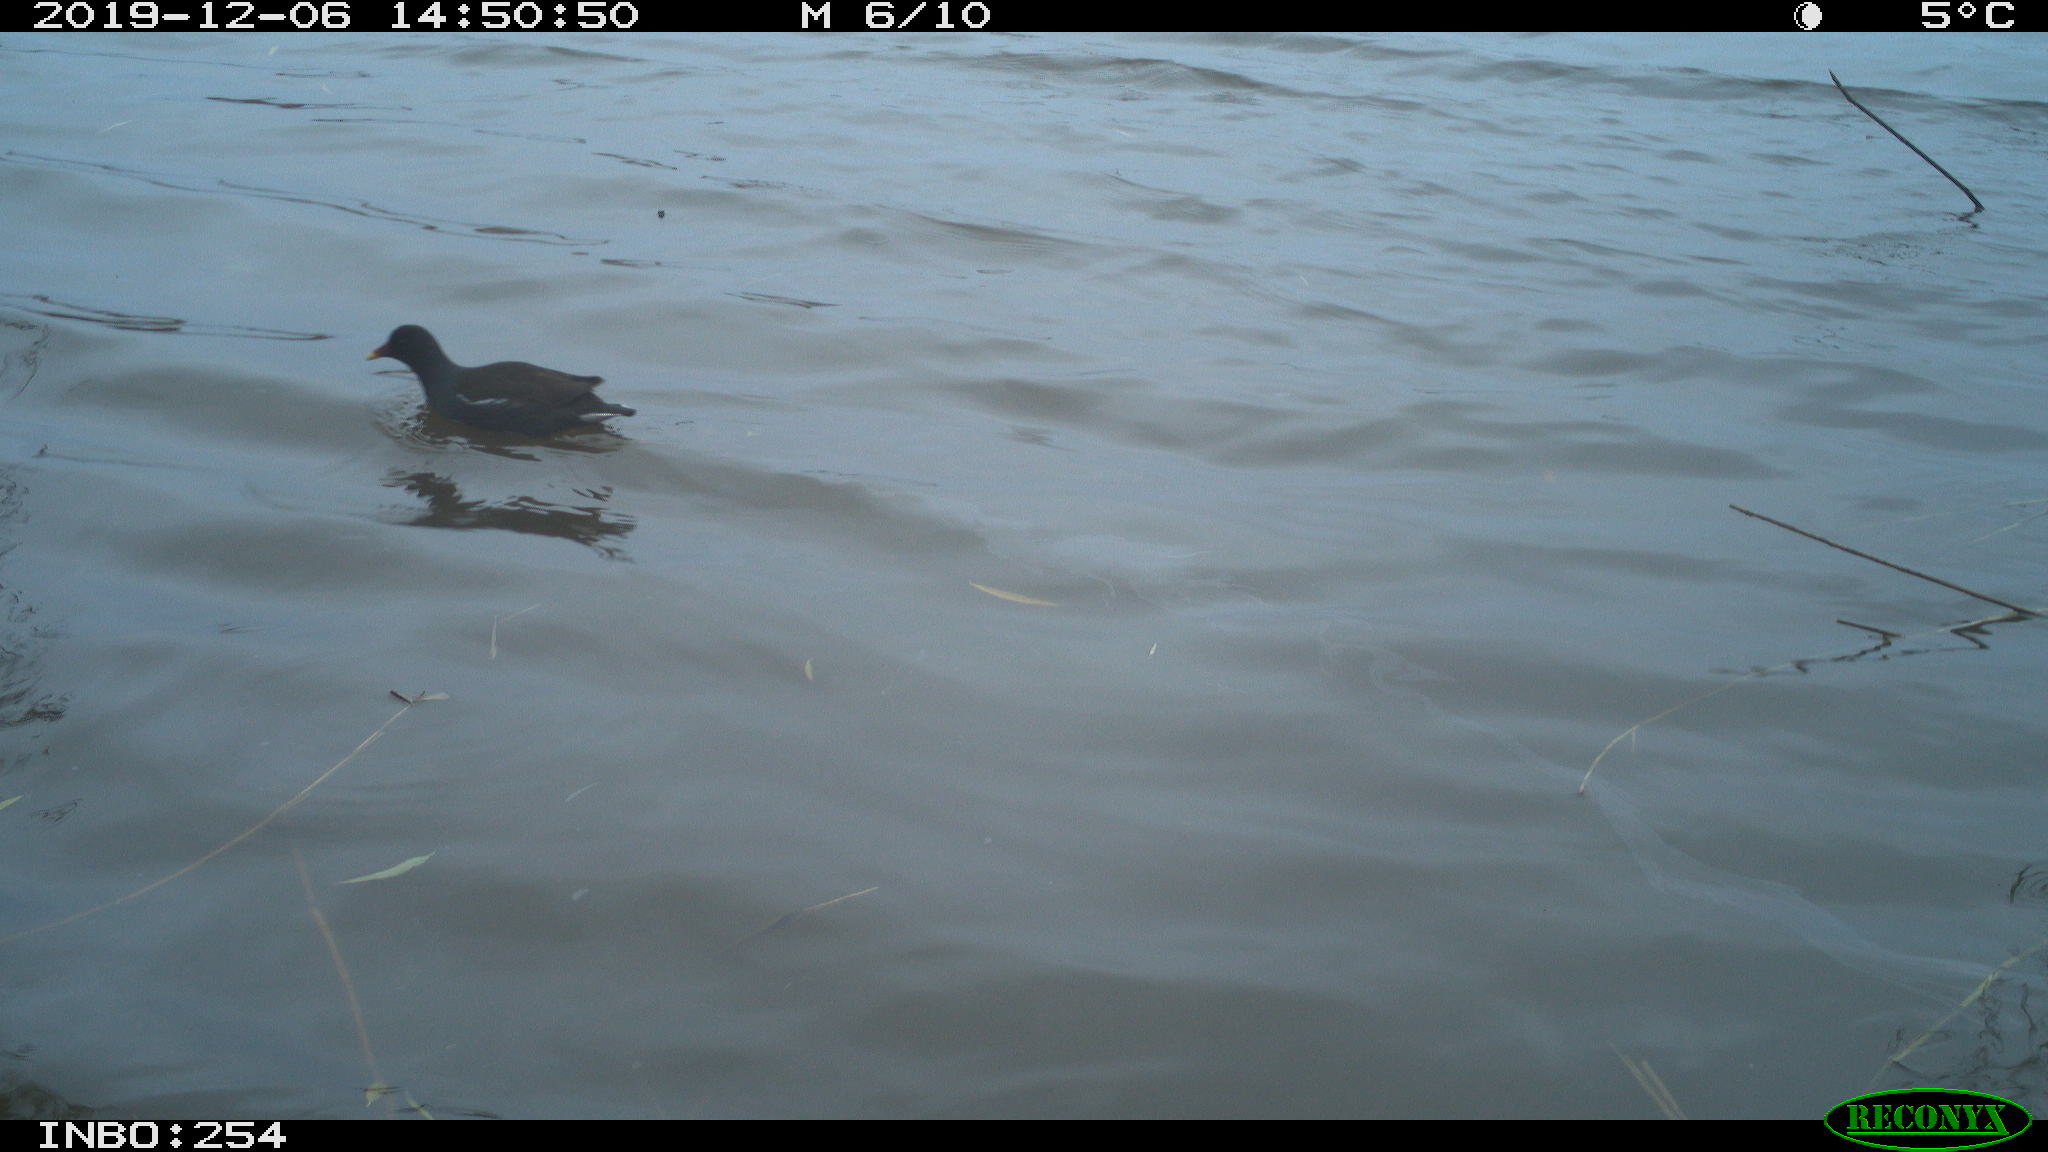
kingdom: Animalia
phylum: Chordata
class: Aves
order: Gruiformes
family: Rallidae
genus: Gallinula
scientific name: Gallinula chloropus
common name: Common moorhen
